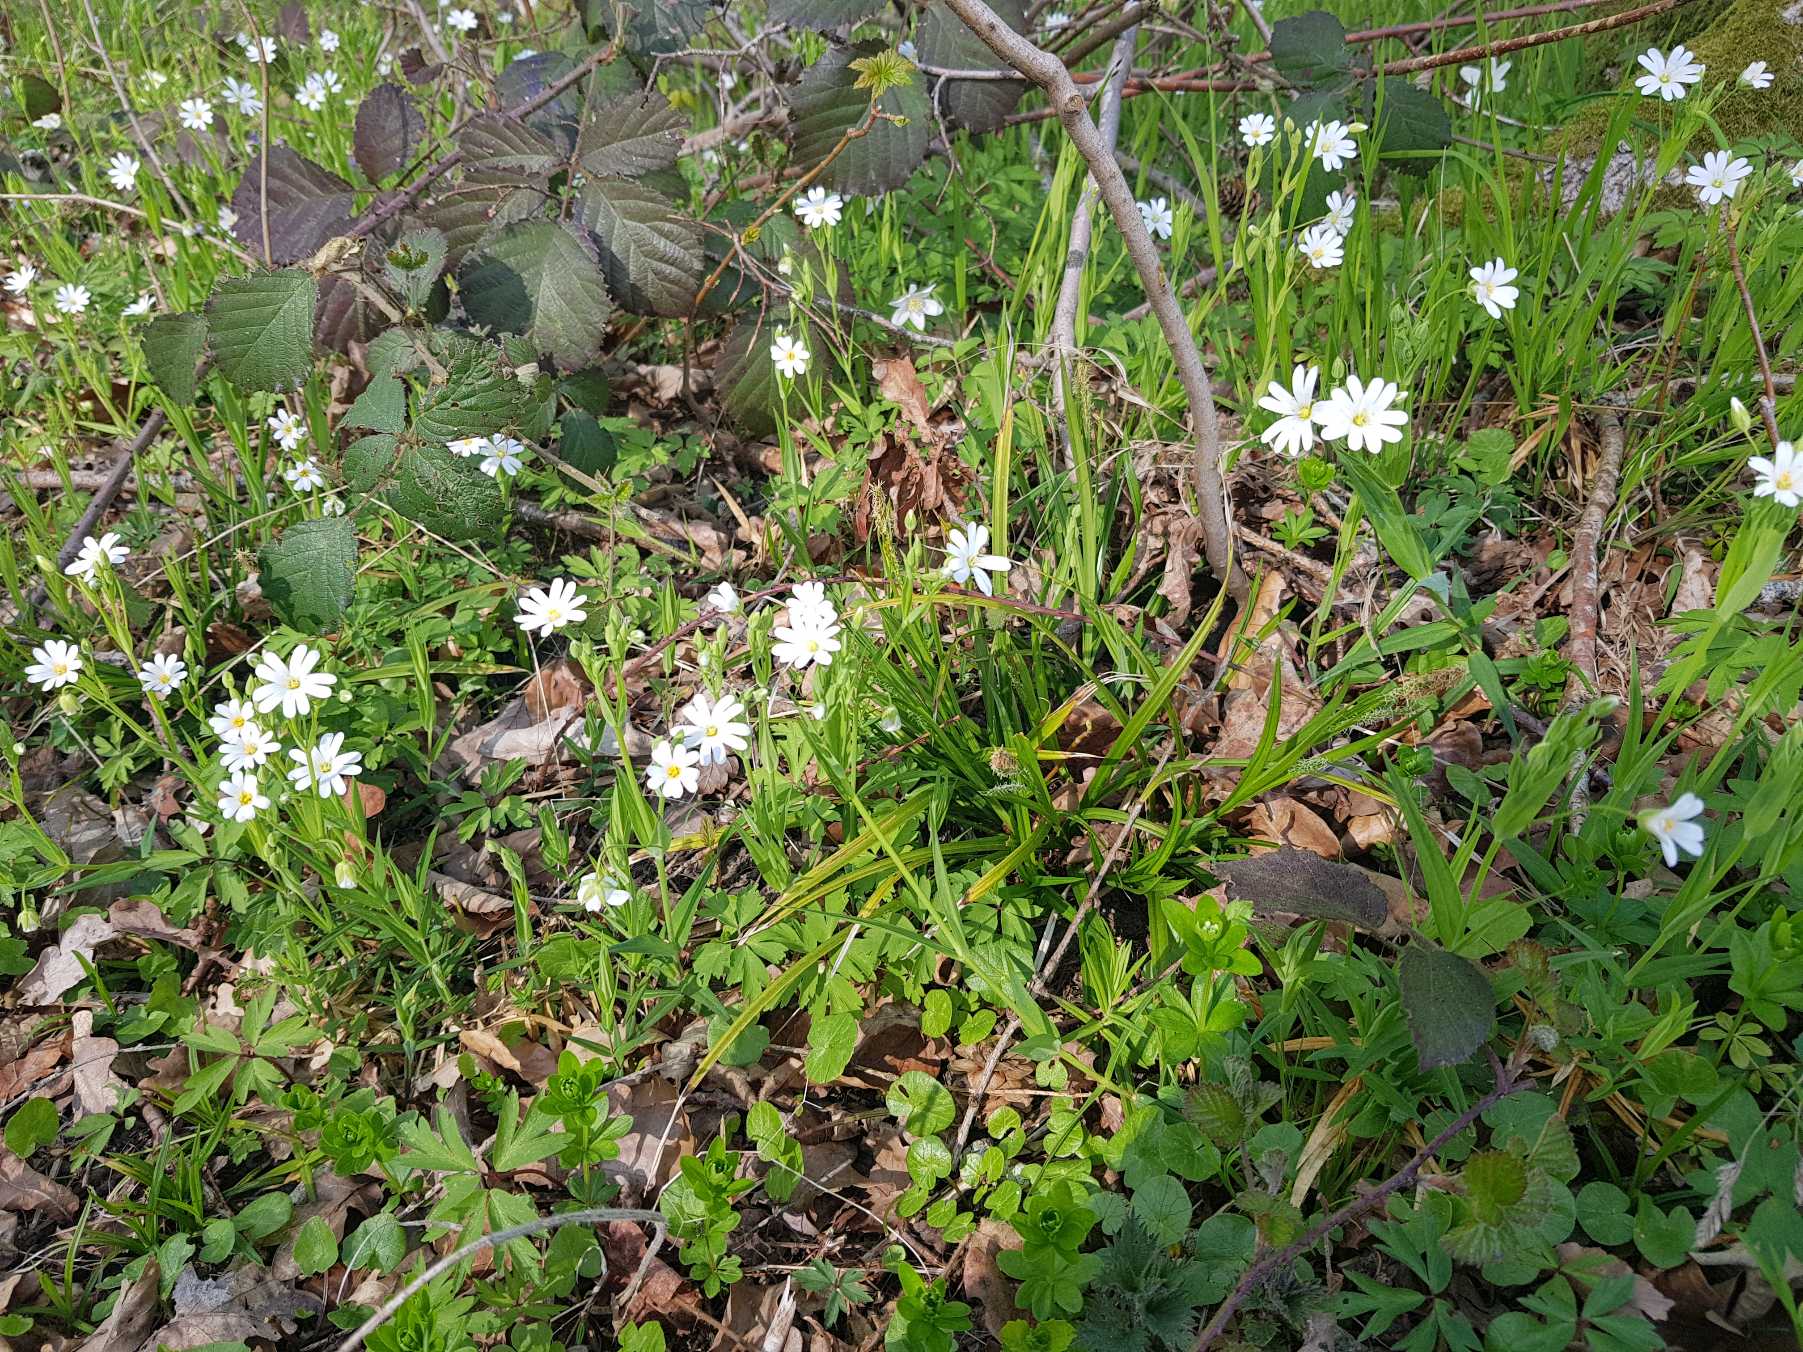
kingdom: Plantae
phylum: Tracheophyta
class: Magnoliopsida
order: Caryophyllales
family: Caryophyllaceae
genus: Rabelera
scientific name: Rabelera holostea
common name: Stor fladstjerne
